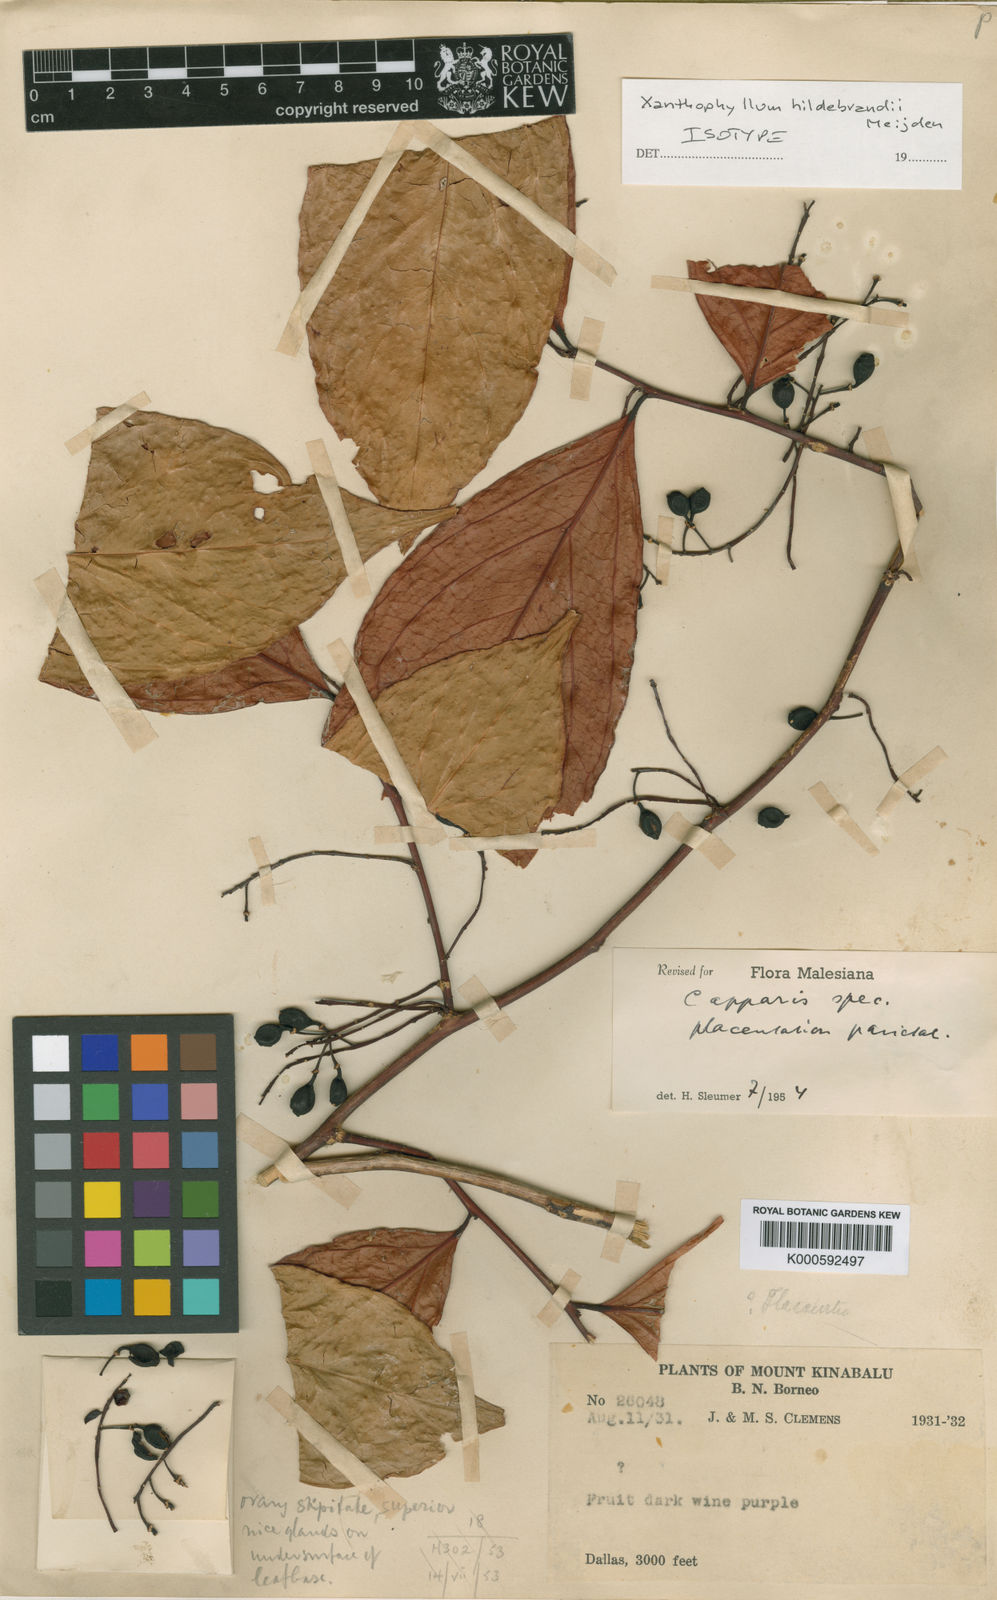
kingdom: Plantae
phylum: Tracheophyta
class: Magnoliopsida
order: Fabales
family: Polygalaceae
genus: Xanthophyllum
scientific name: Xanthophyllum hildebrandii
